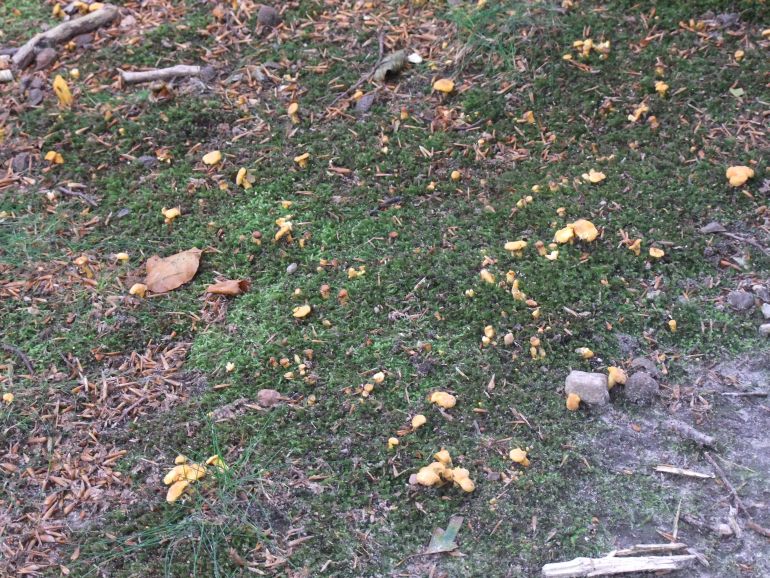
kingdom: Fungi
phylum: Basidiomycota
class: Agaricomycetes
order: Cantharellales
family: Hydnaceae
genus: Cantharellus
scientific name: Cantharellus cibarius
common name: almindelig kantarel
